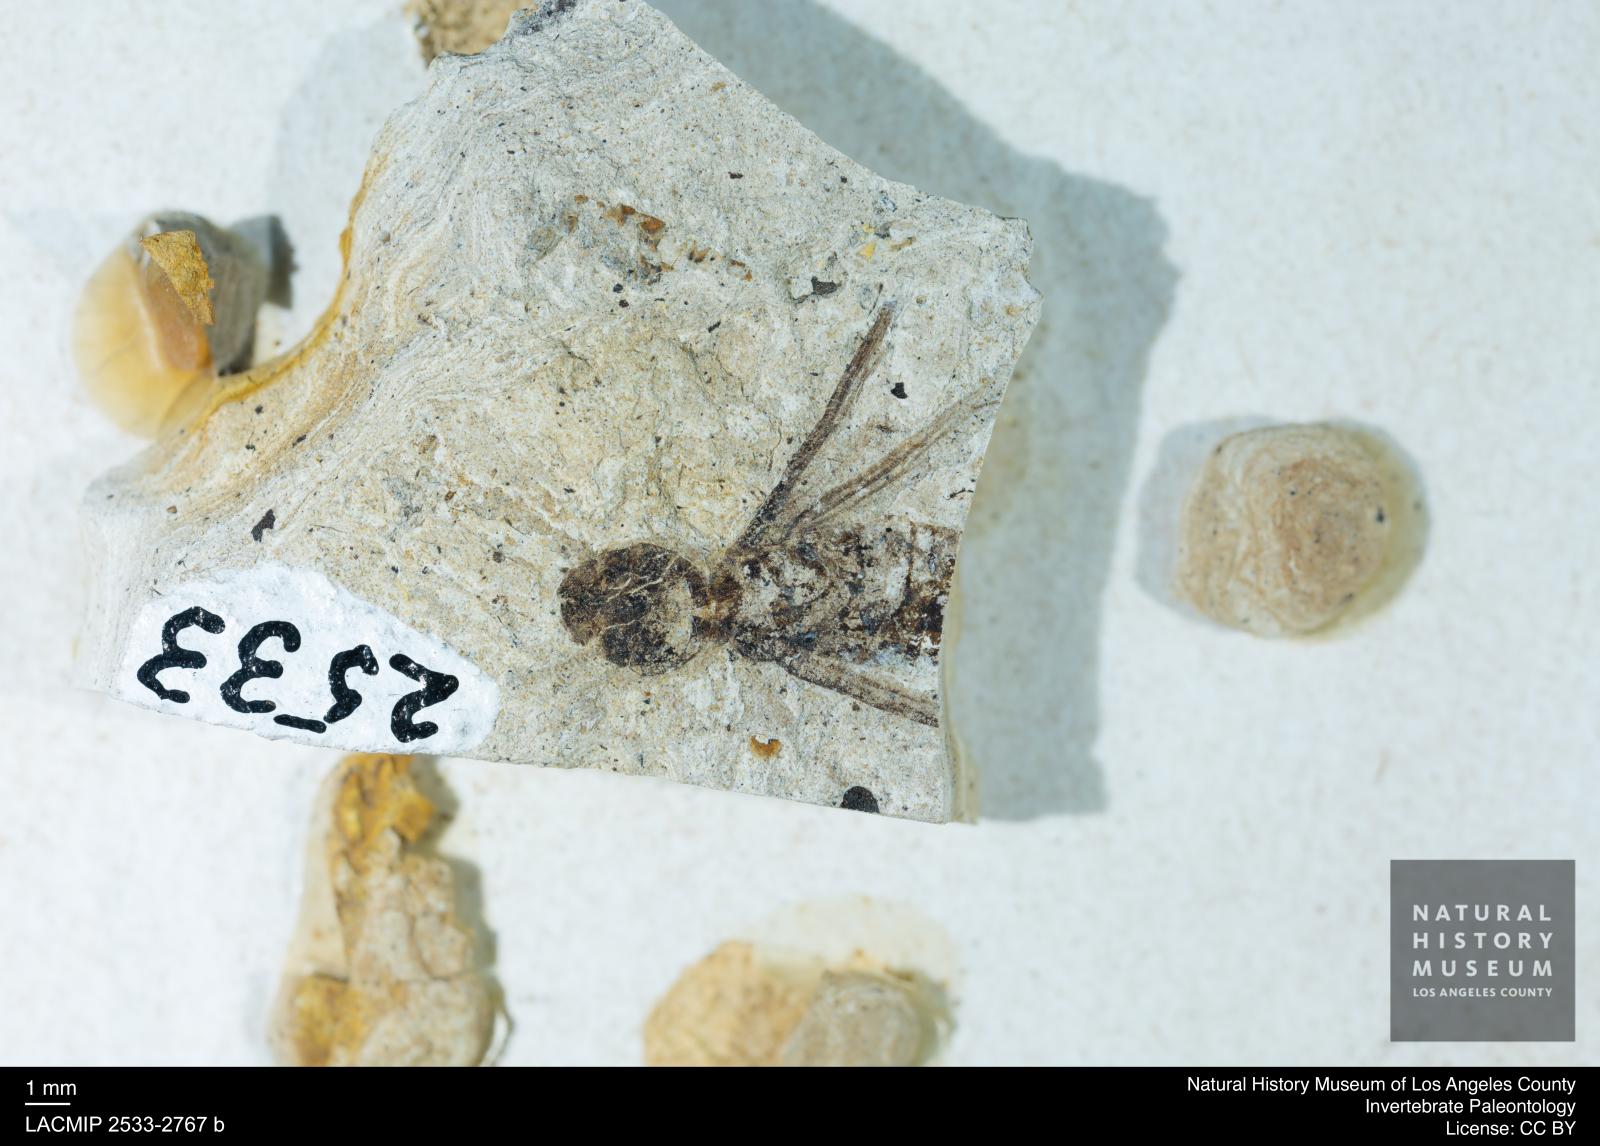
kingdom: Animalia
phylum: Arthropoda
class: Insecta
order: Blattodea
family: Hodotermitidae
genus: Ulmeriella
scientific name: Ulmeriella bauckhorni
